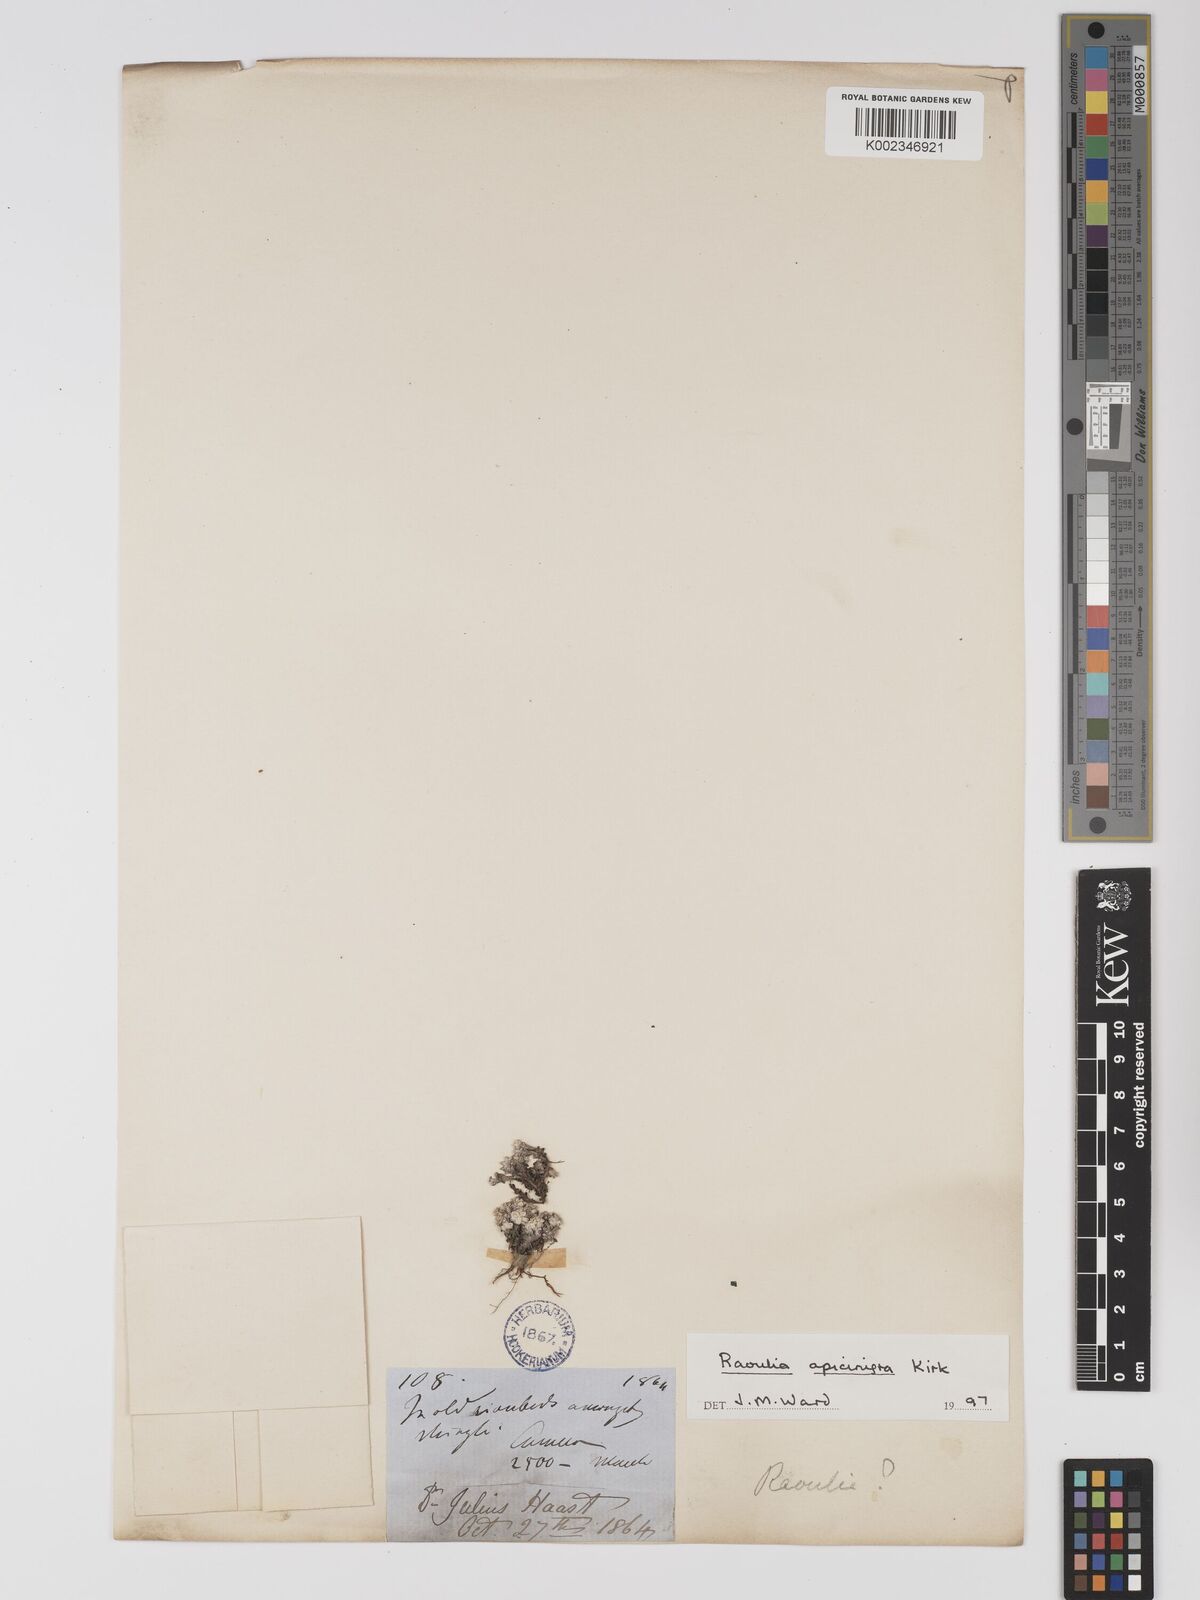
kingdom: Plantae
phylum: Tracheophyta
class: Magnoliopsida
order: Asterales
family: Asteraceae
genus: Raoulia
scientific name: Raoulia apice-nigra
